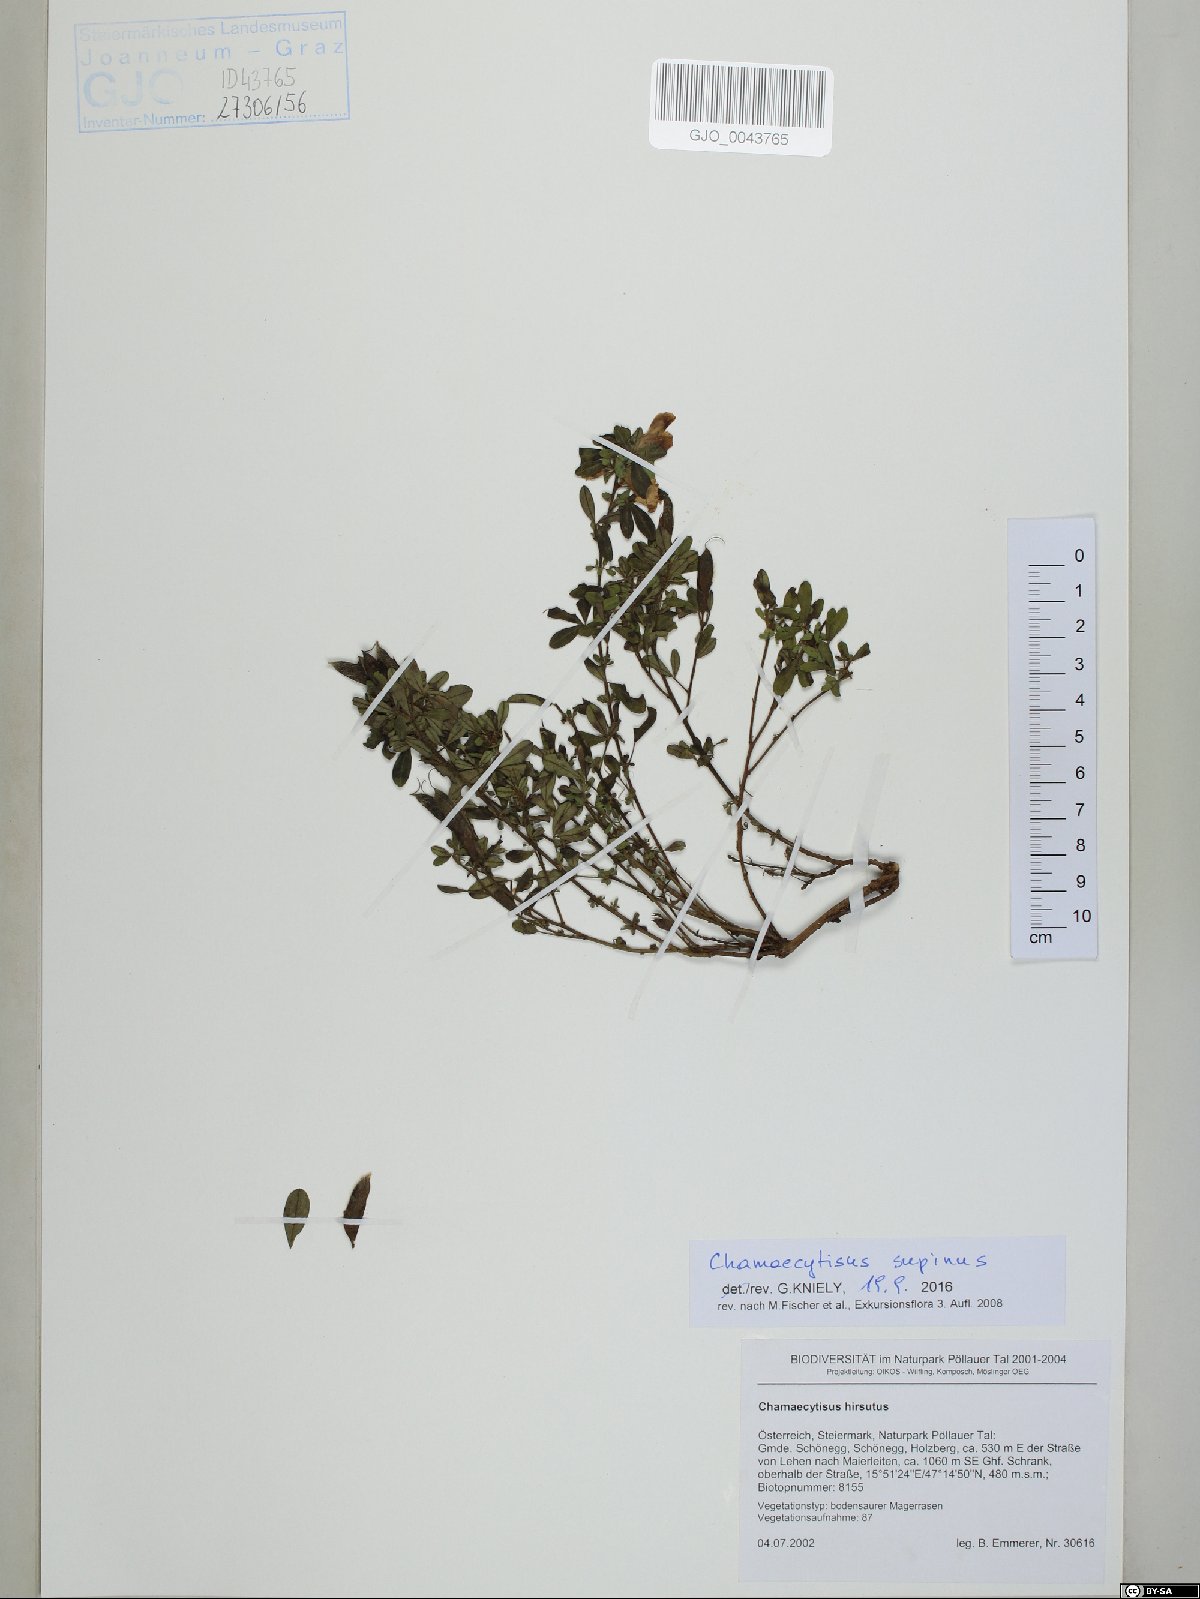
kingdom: Plantae
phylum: Tracheophyta
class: Magnoliopsida
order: Fabales
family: Fabaceae
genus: Chamaecytisus
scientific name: Chamaecytisus supinus
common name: Clustered broom
